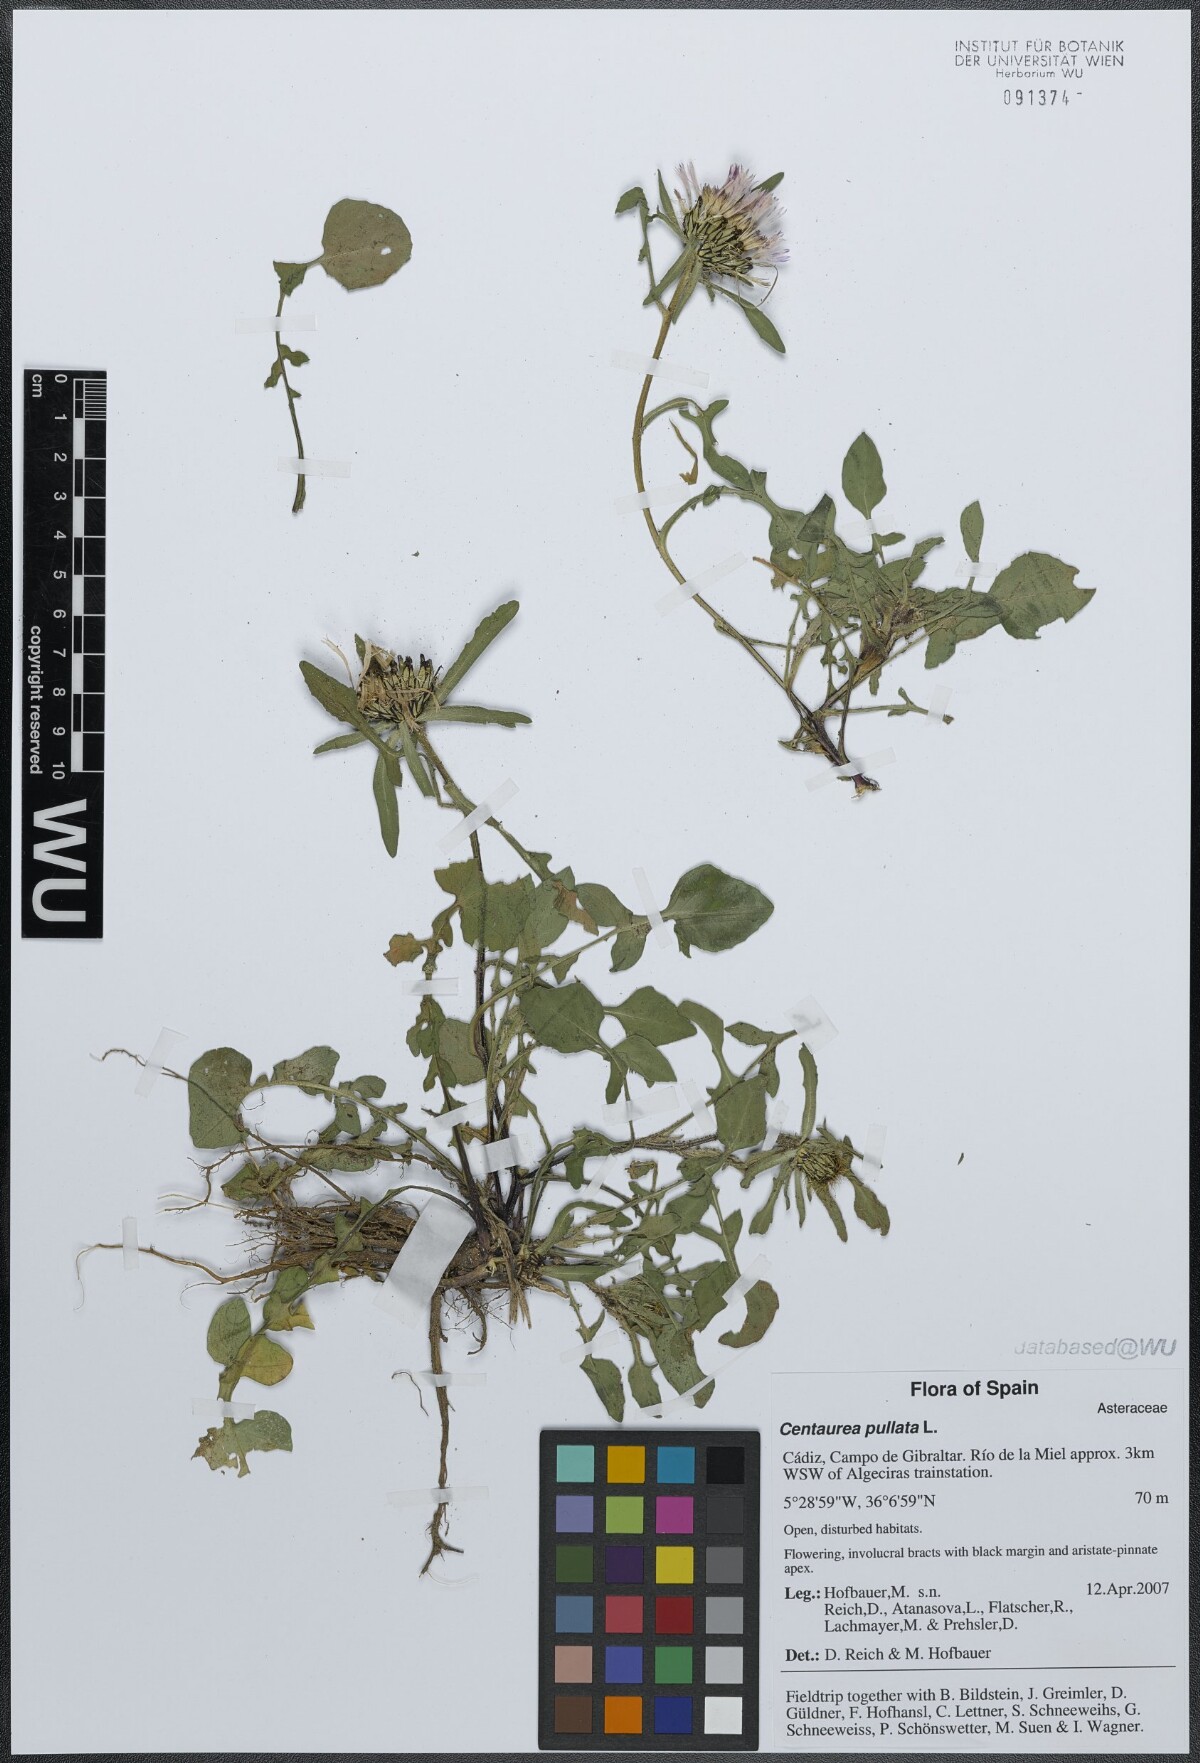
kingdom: Plantae
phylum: Tracheophyta
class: Magnoliopsida
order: Asterales
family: Asteraceae
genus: Centaurea
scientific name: Centaurea pullata
